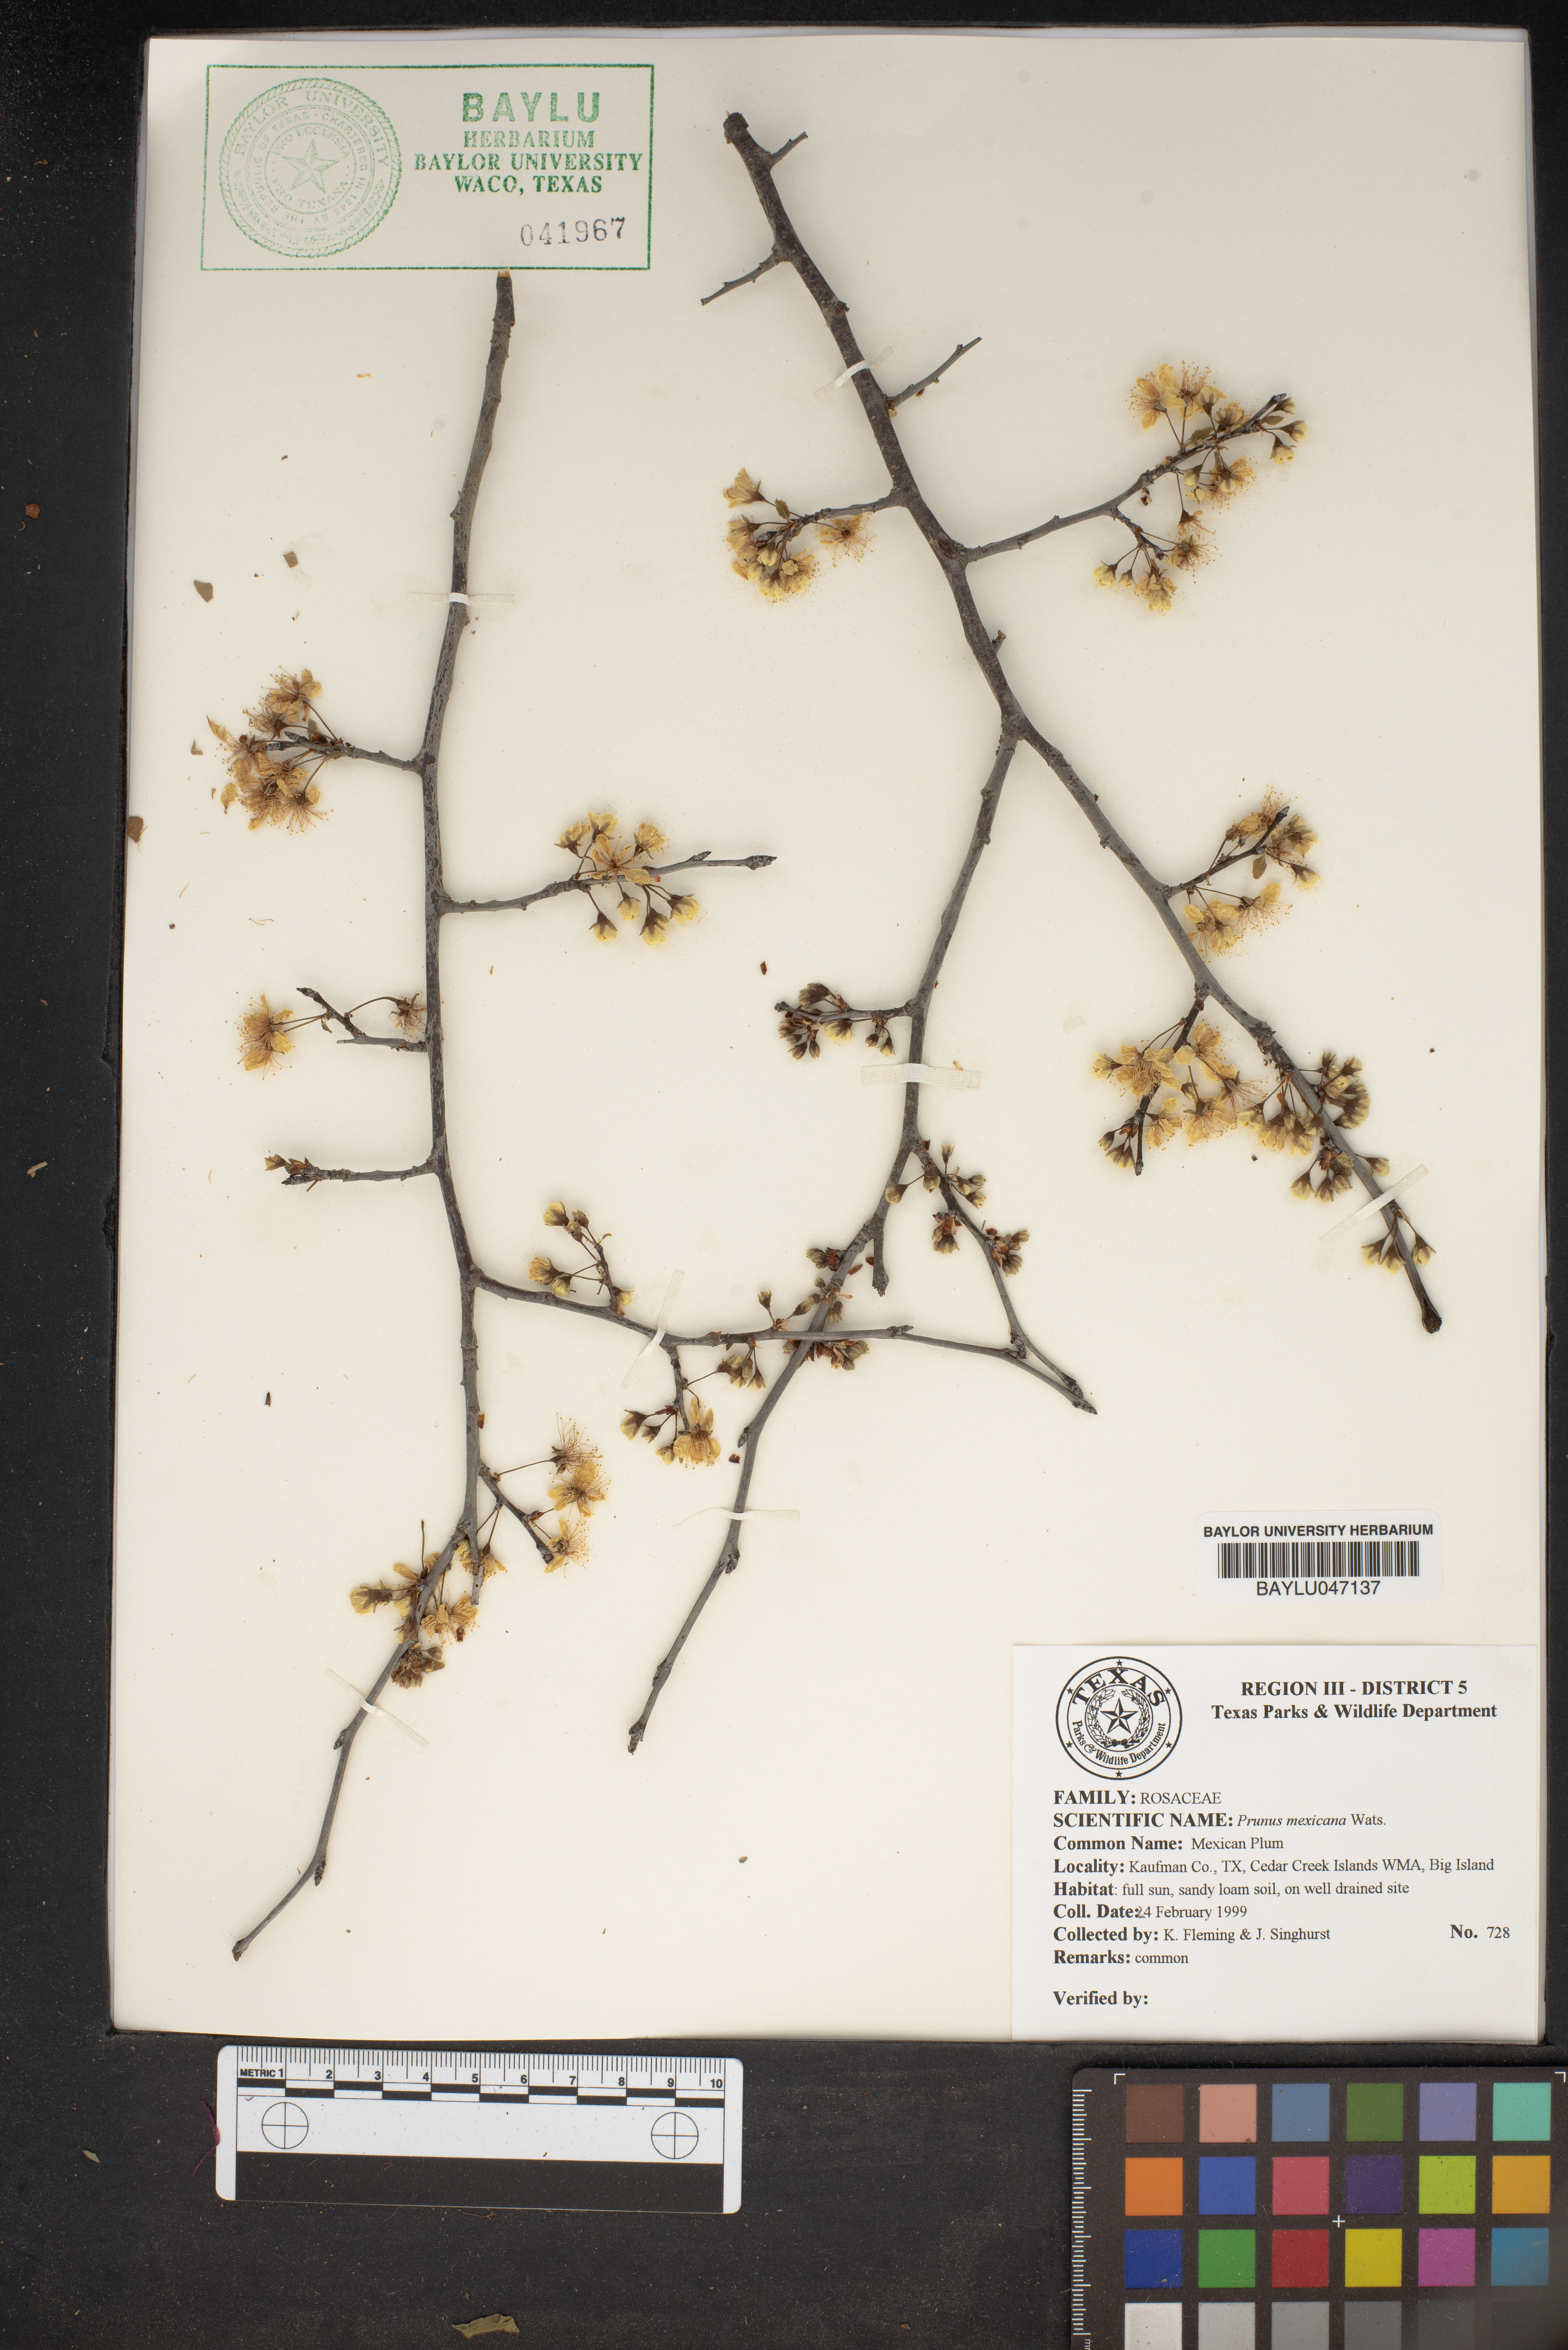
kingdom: Plantae
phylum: Tracheophyta
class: Magnoliopsida
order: Rosales
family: Rosaceae
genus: Prunus
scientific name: Prunus mexicana
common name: Mexican plum
